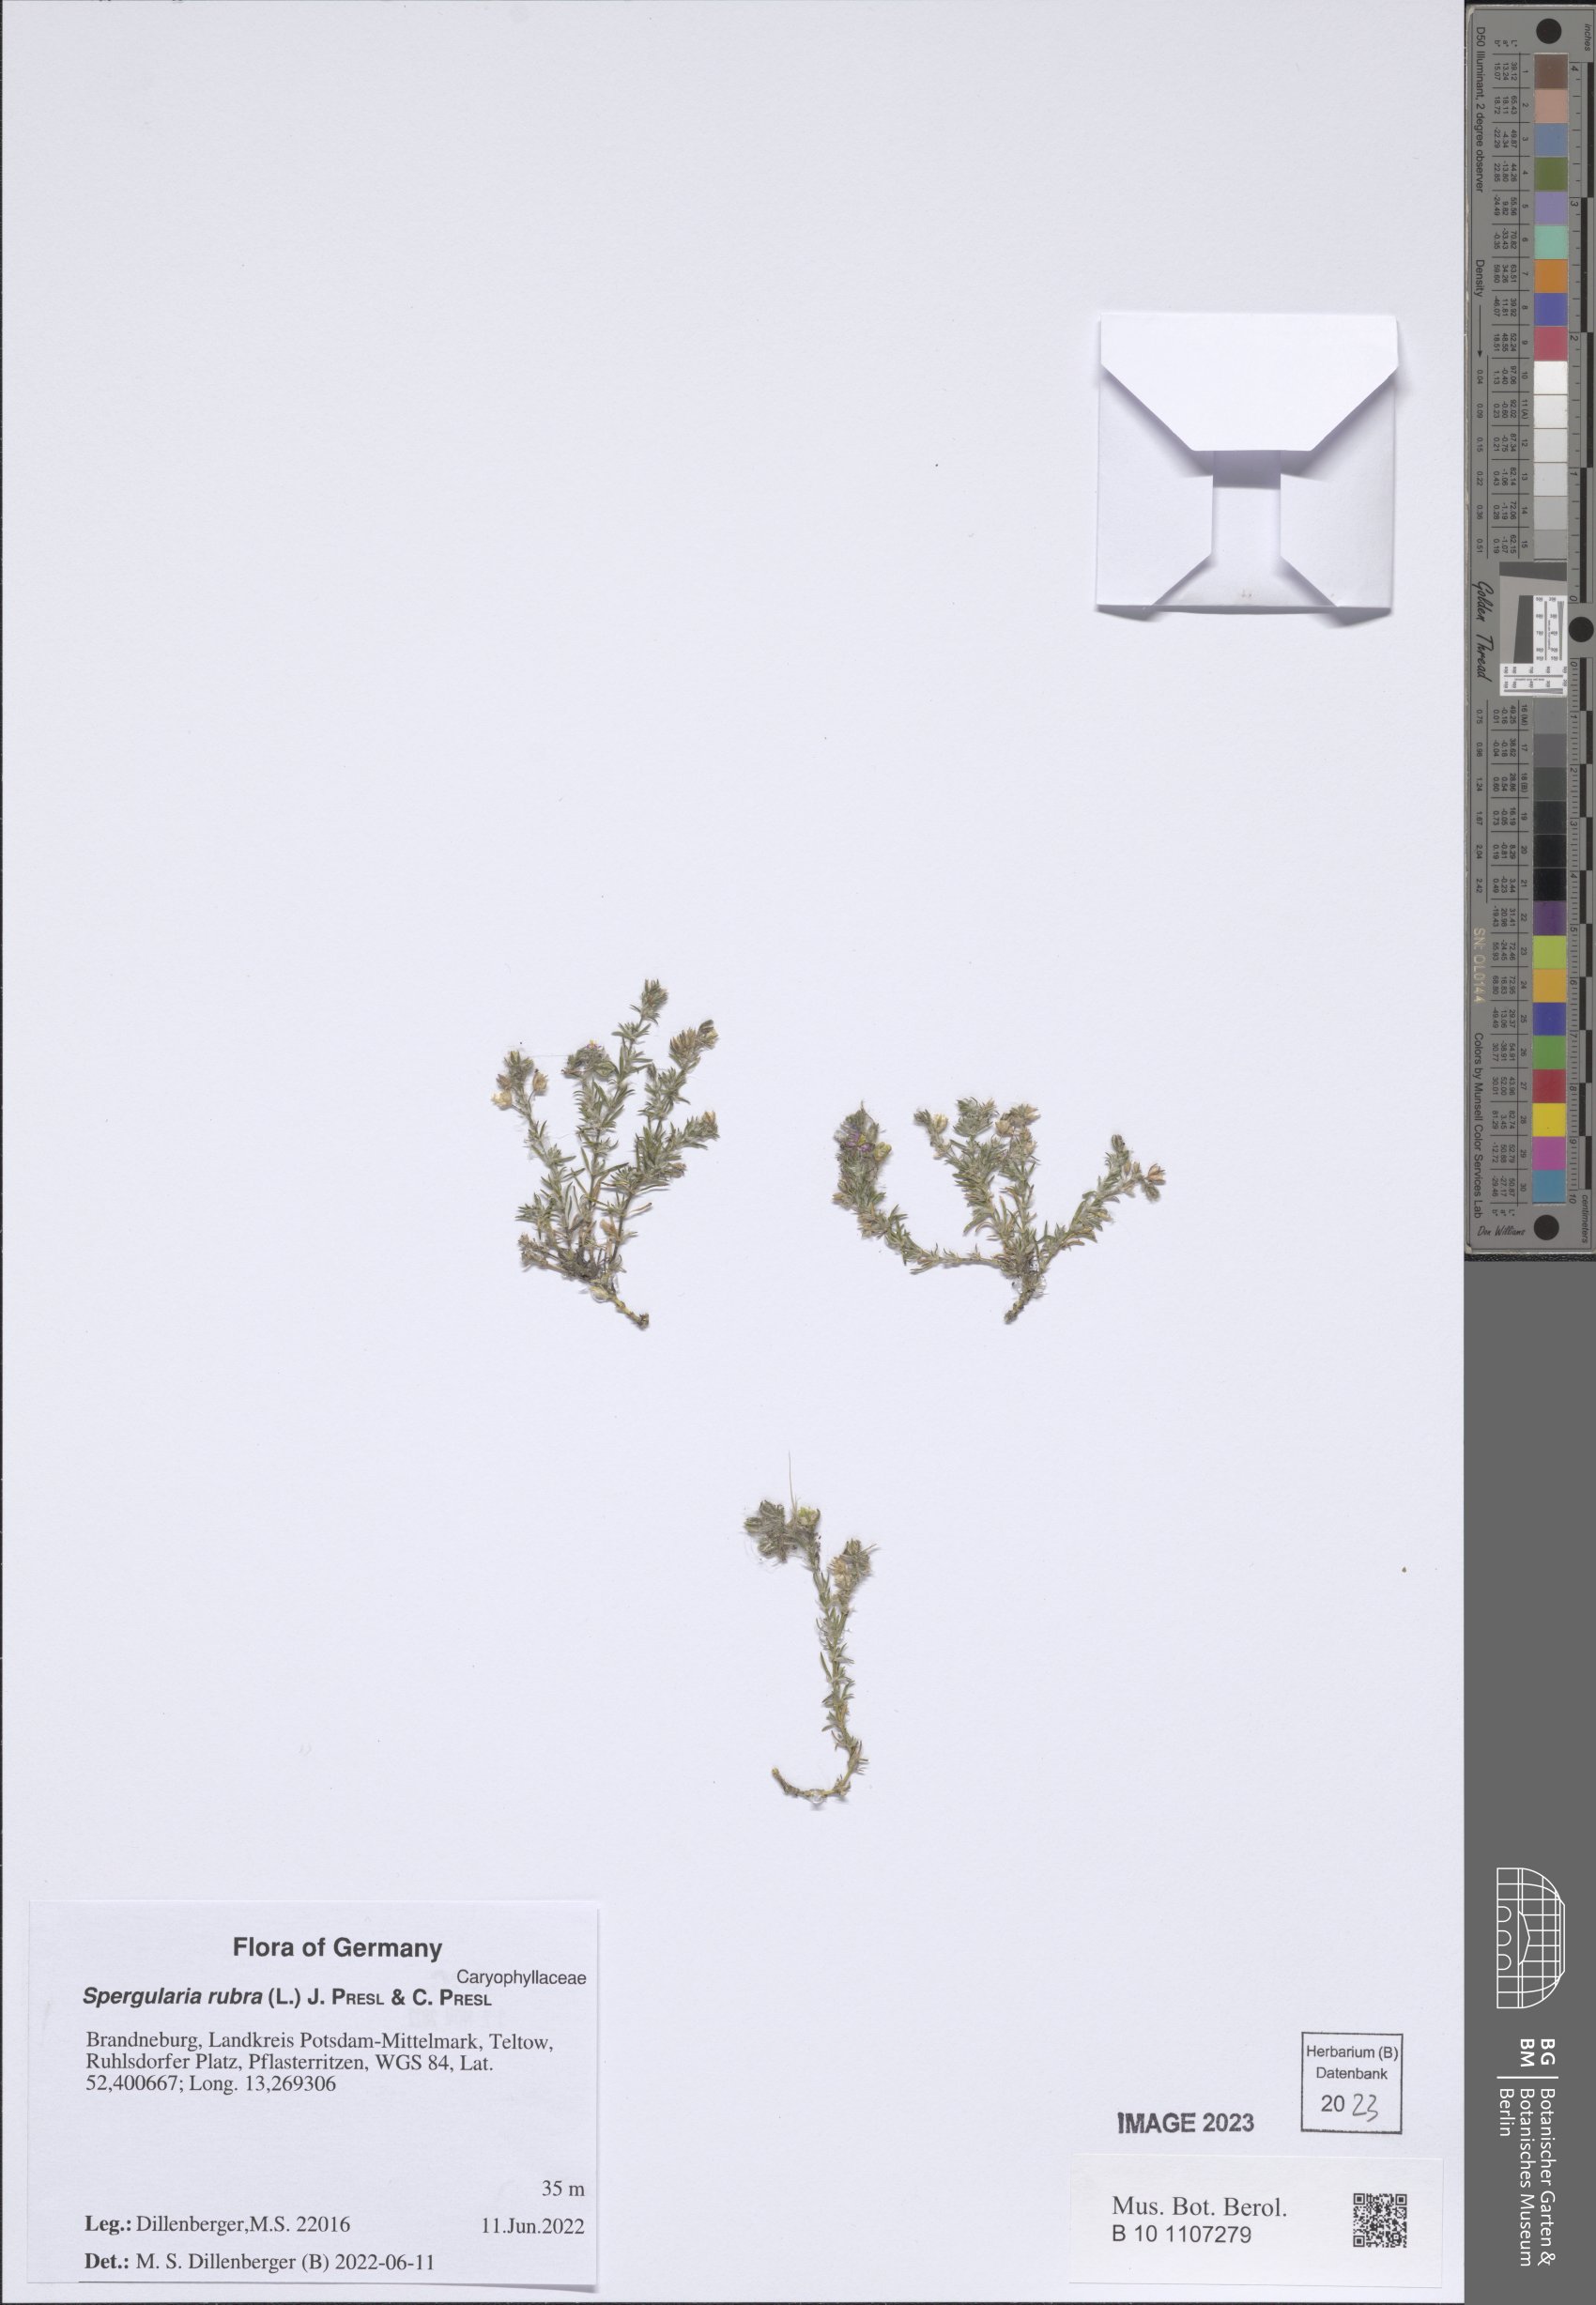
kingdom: Plantae
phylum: Tracheophyta
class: Magnoliopsida
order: Caryophyllales
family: Caryophyllaceae
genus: Spergularia
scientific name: Spergularia rubra
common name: Red sand-spurrey
